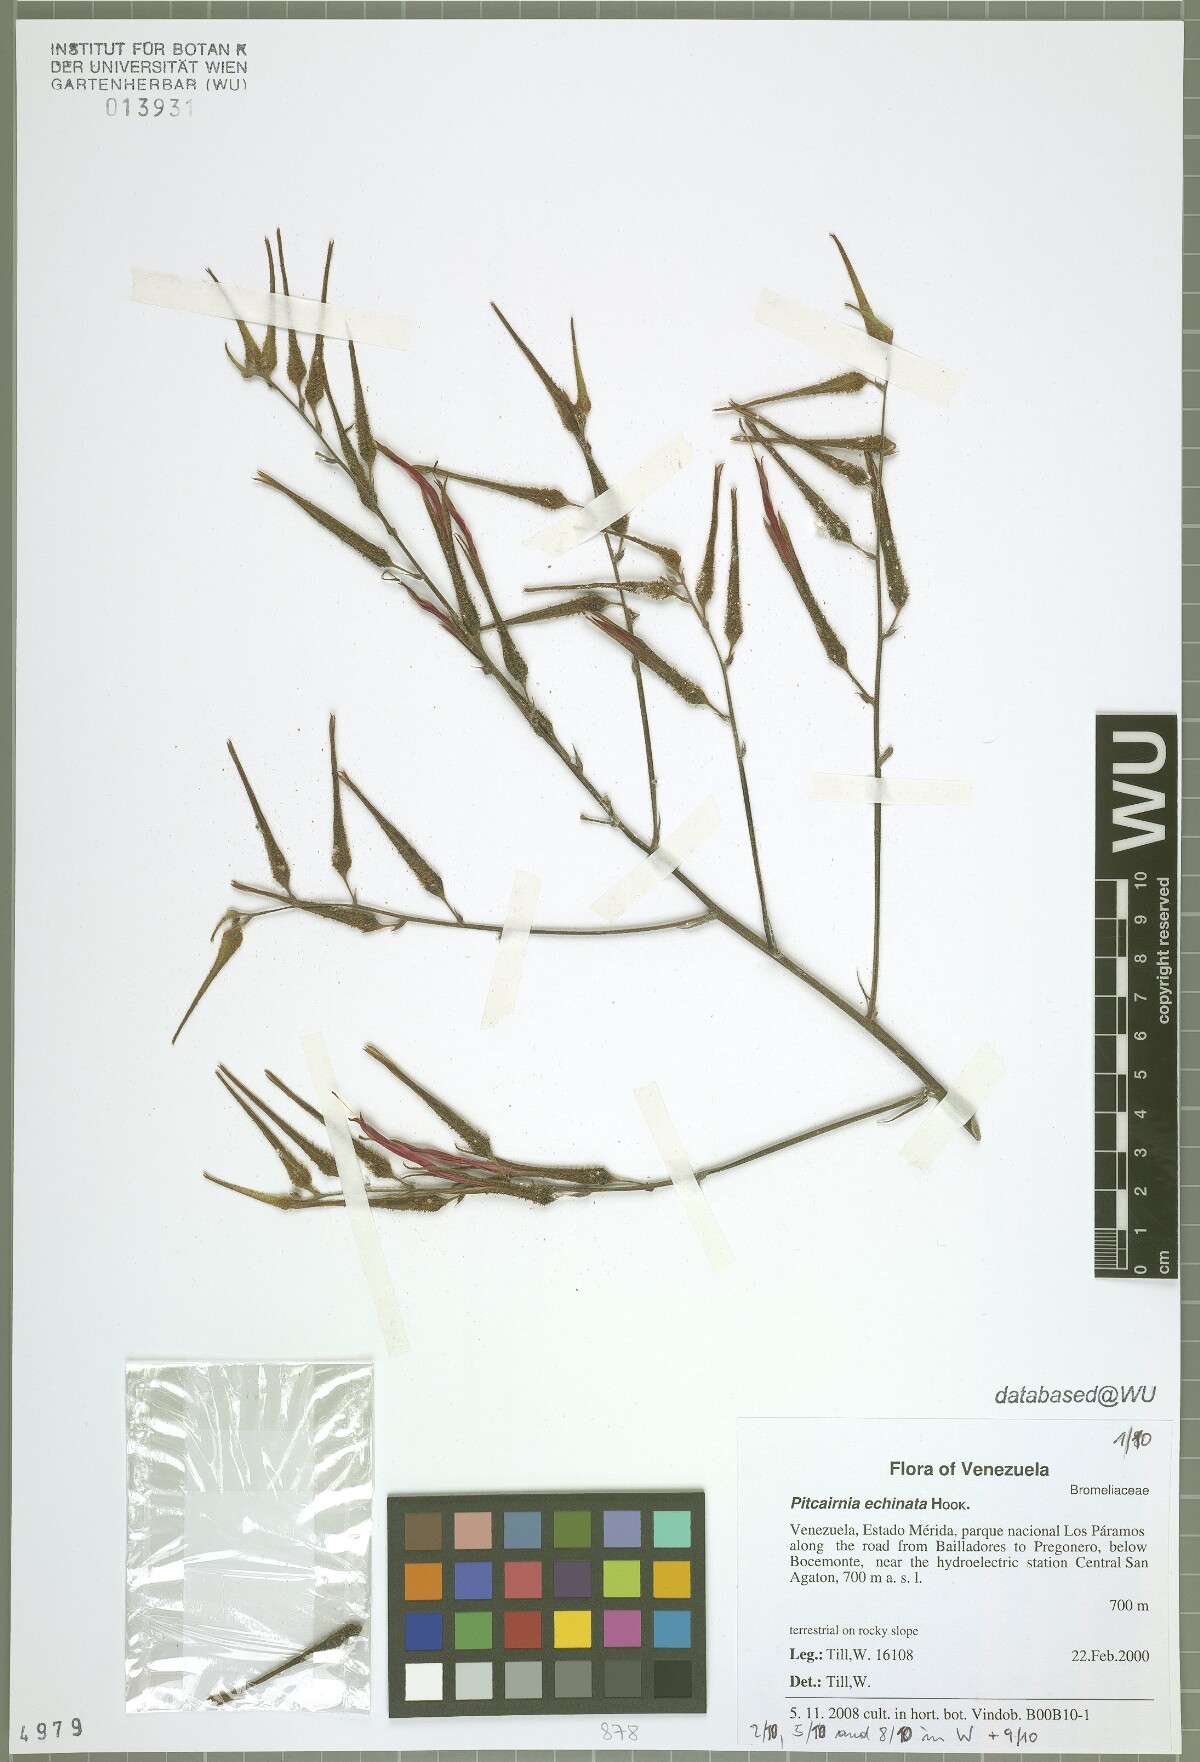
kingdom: Plantae
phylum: Tracheophyta
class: Liliopsida
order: Poales
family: Bromeliaceae
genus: Pitcairnia
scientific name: Pitcairnia echinata
